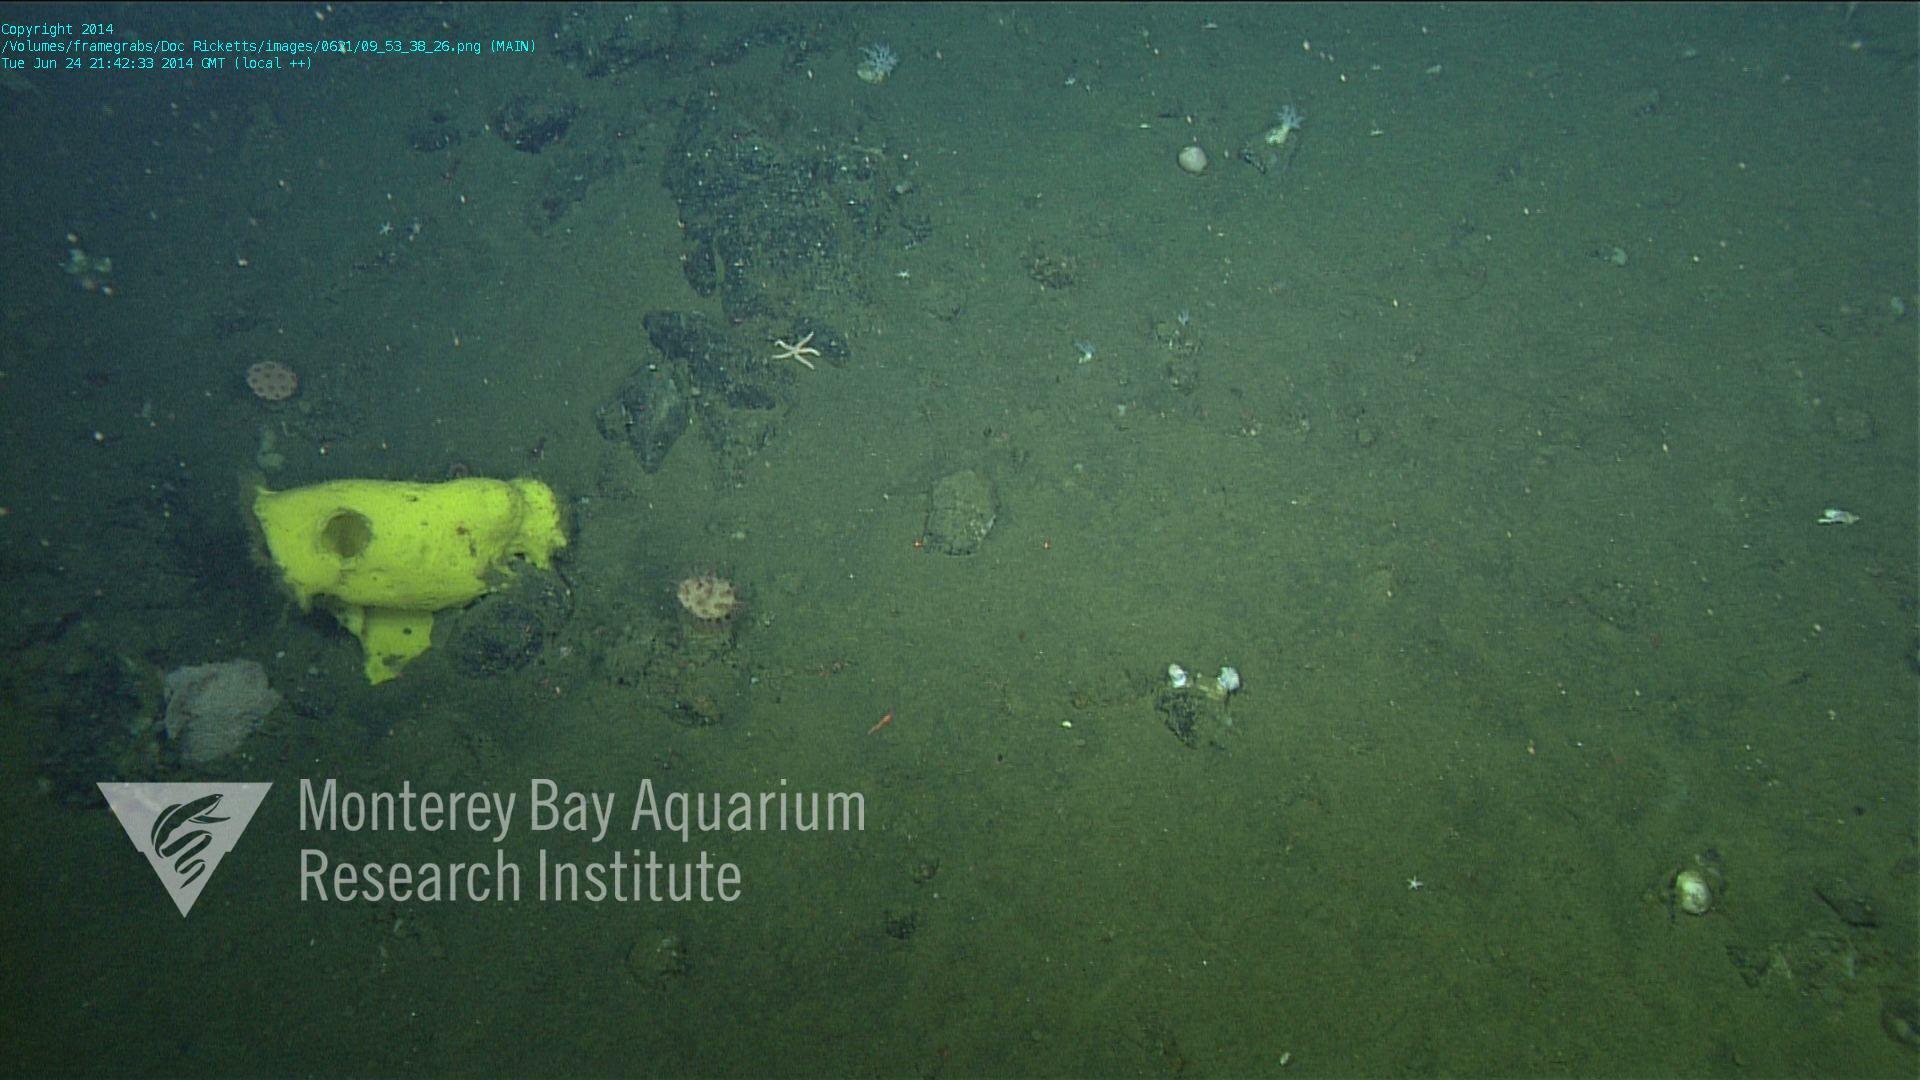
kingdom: Animalia
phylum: Cnidaria
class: Anthozoa
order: Scleralcyonacea
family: Coralliidae
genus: Heteropolypus
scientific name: Heteropolypus ritteri
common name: Ritter's soft coral
